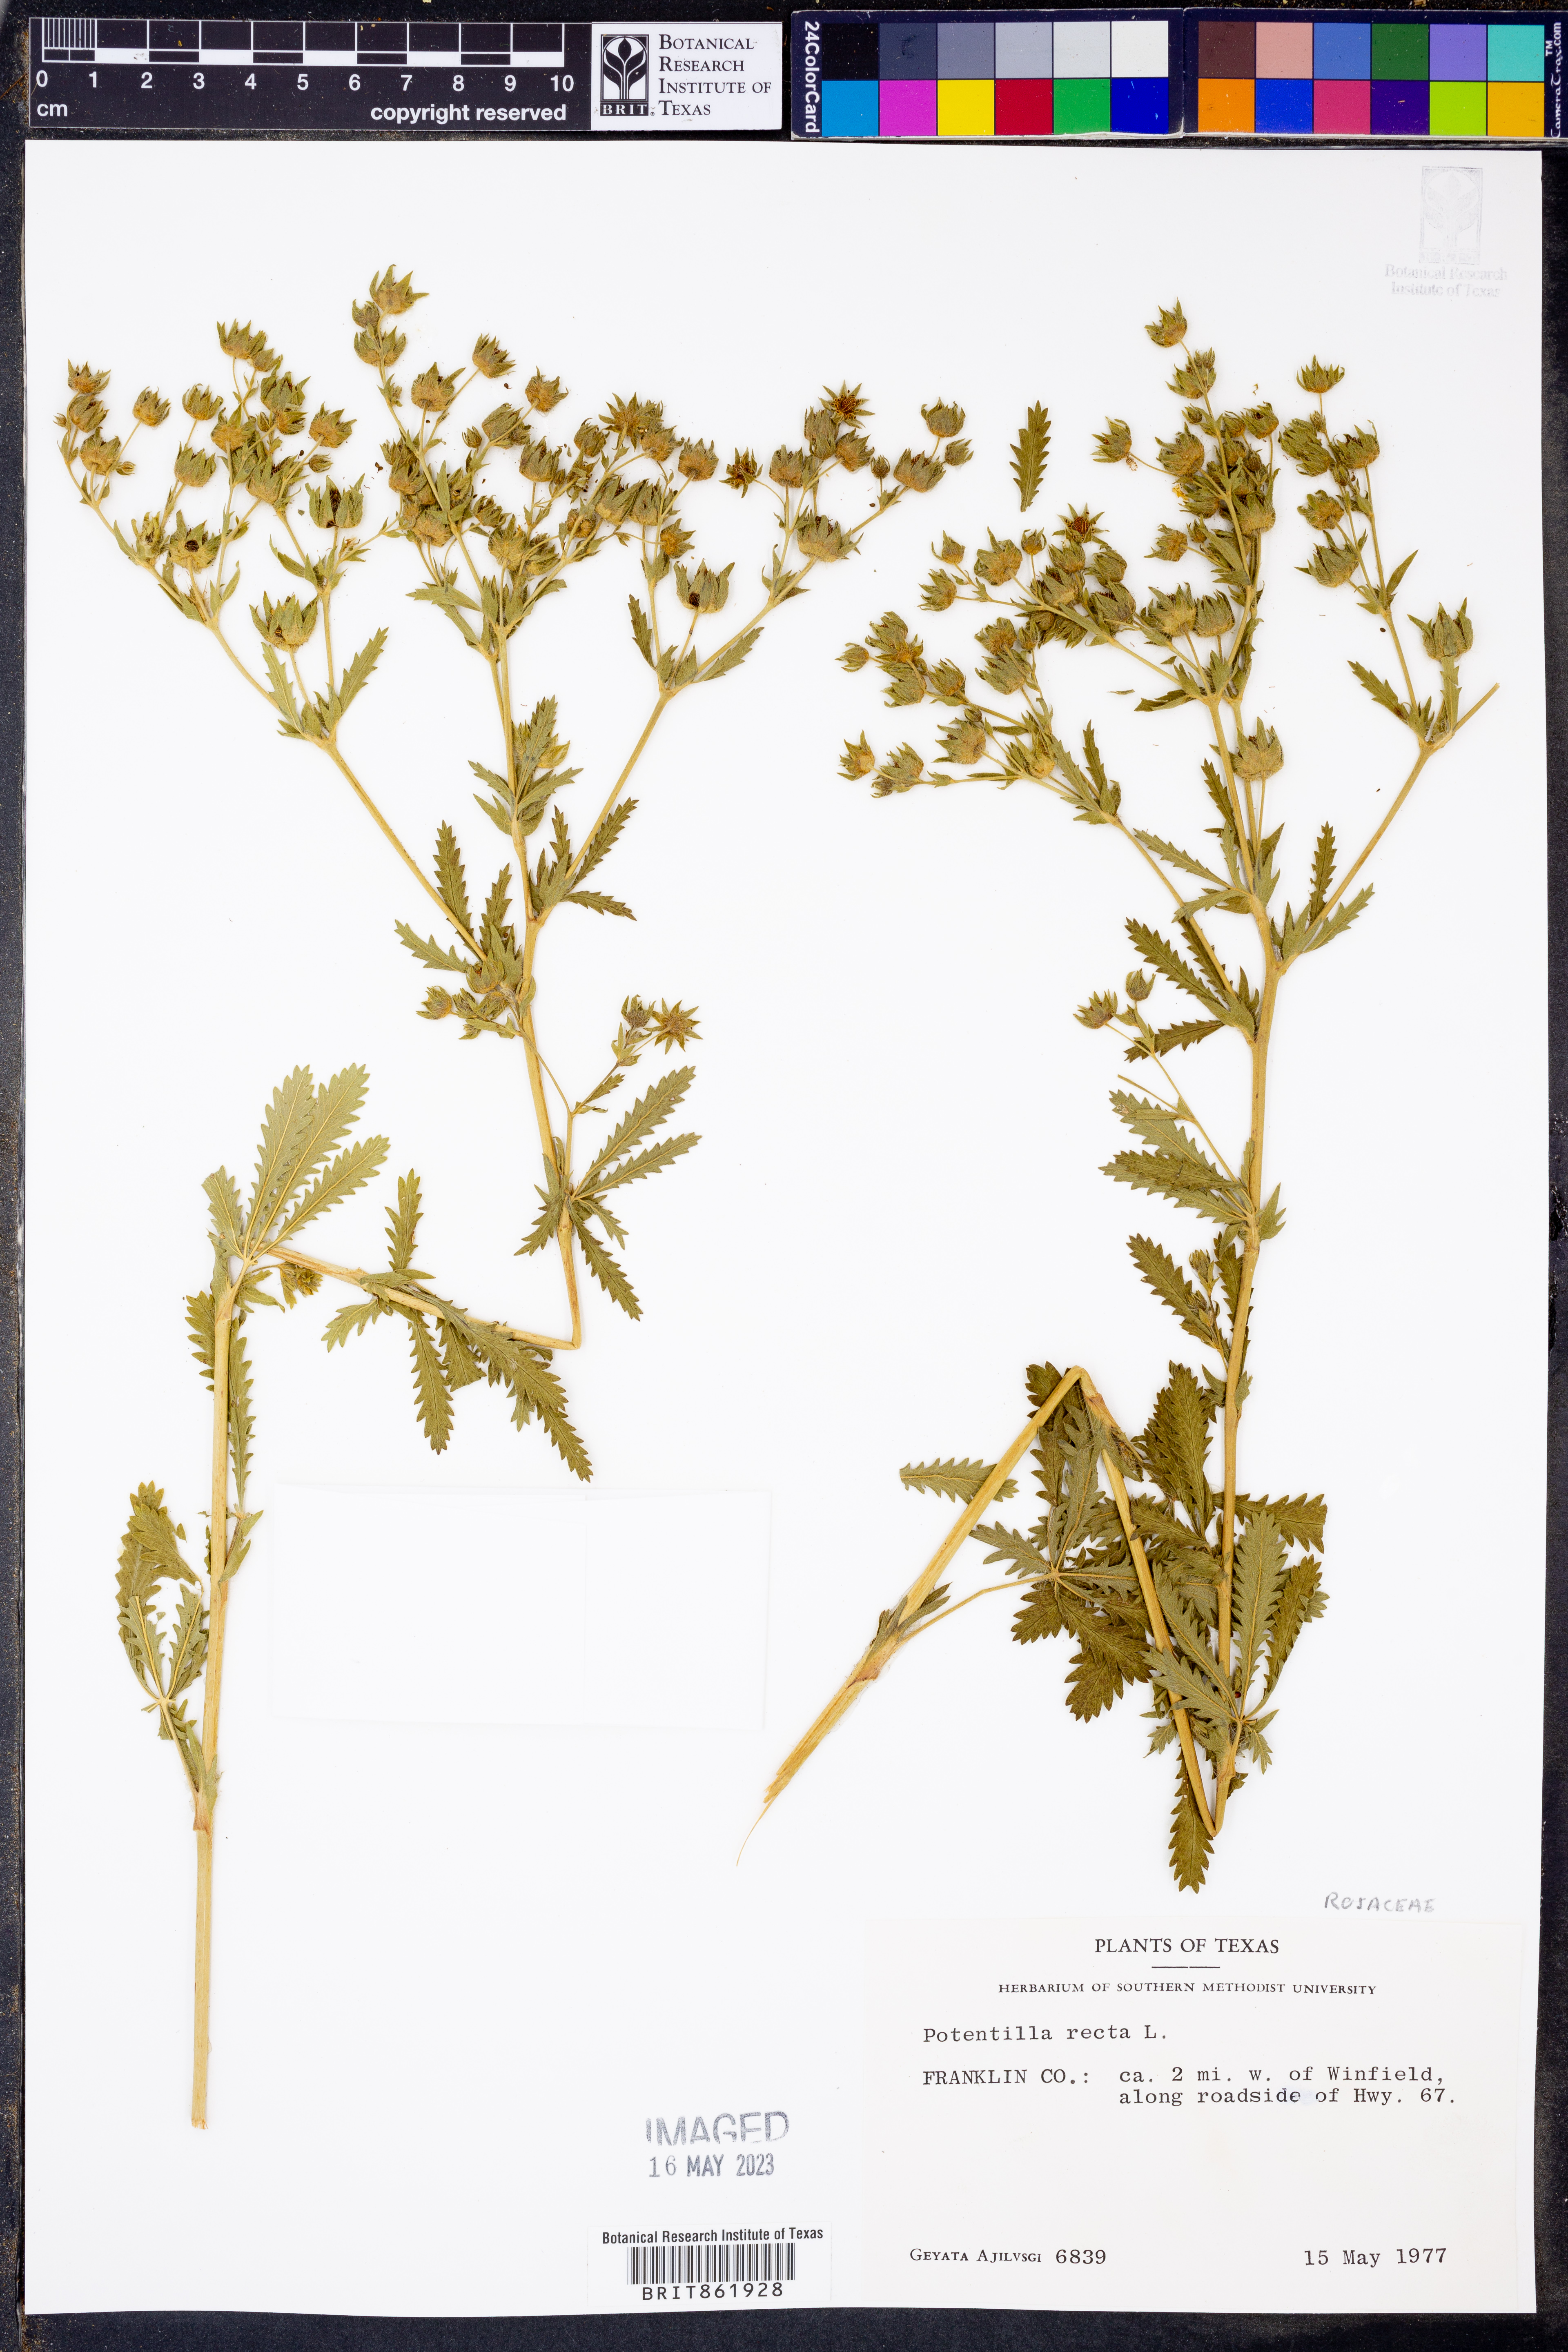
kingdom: Plantae
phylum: Tracheophyta
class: Magnoliopsida
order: Rosales
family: Rosaceae
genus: Potentilla
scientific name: Potentilla recta
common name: Sulphur cinquefoil
